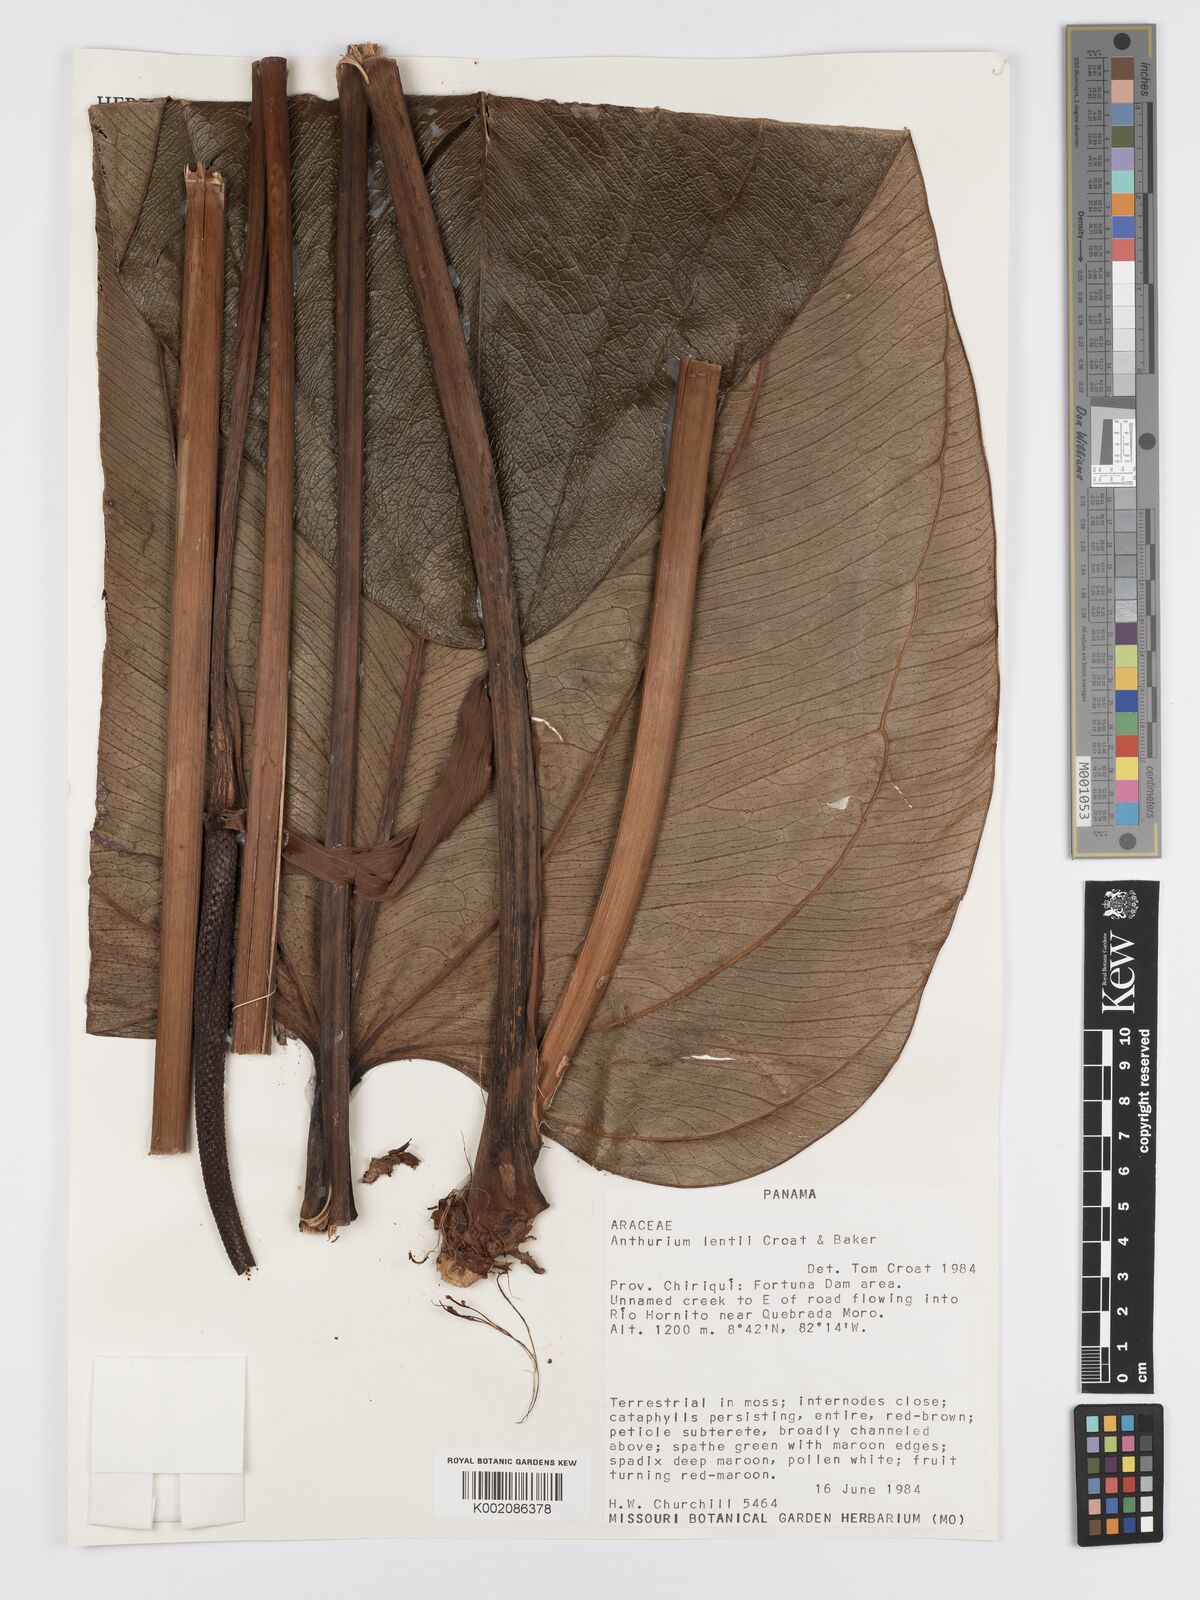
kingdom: Plantae
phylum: Tracheophyta
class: Liliopsida
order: Alismatales
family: Araceae
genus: Anthurium
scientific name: Anthurium lentii
